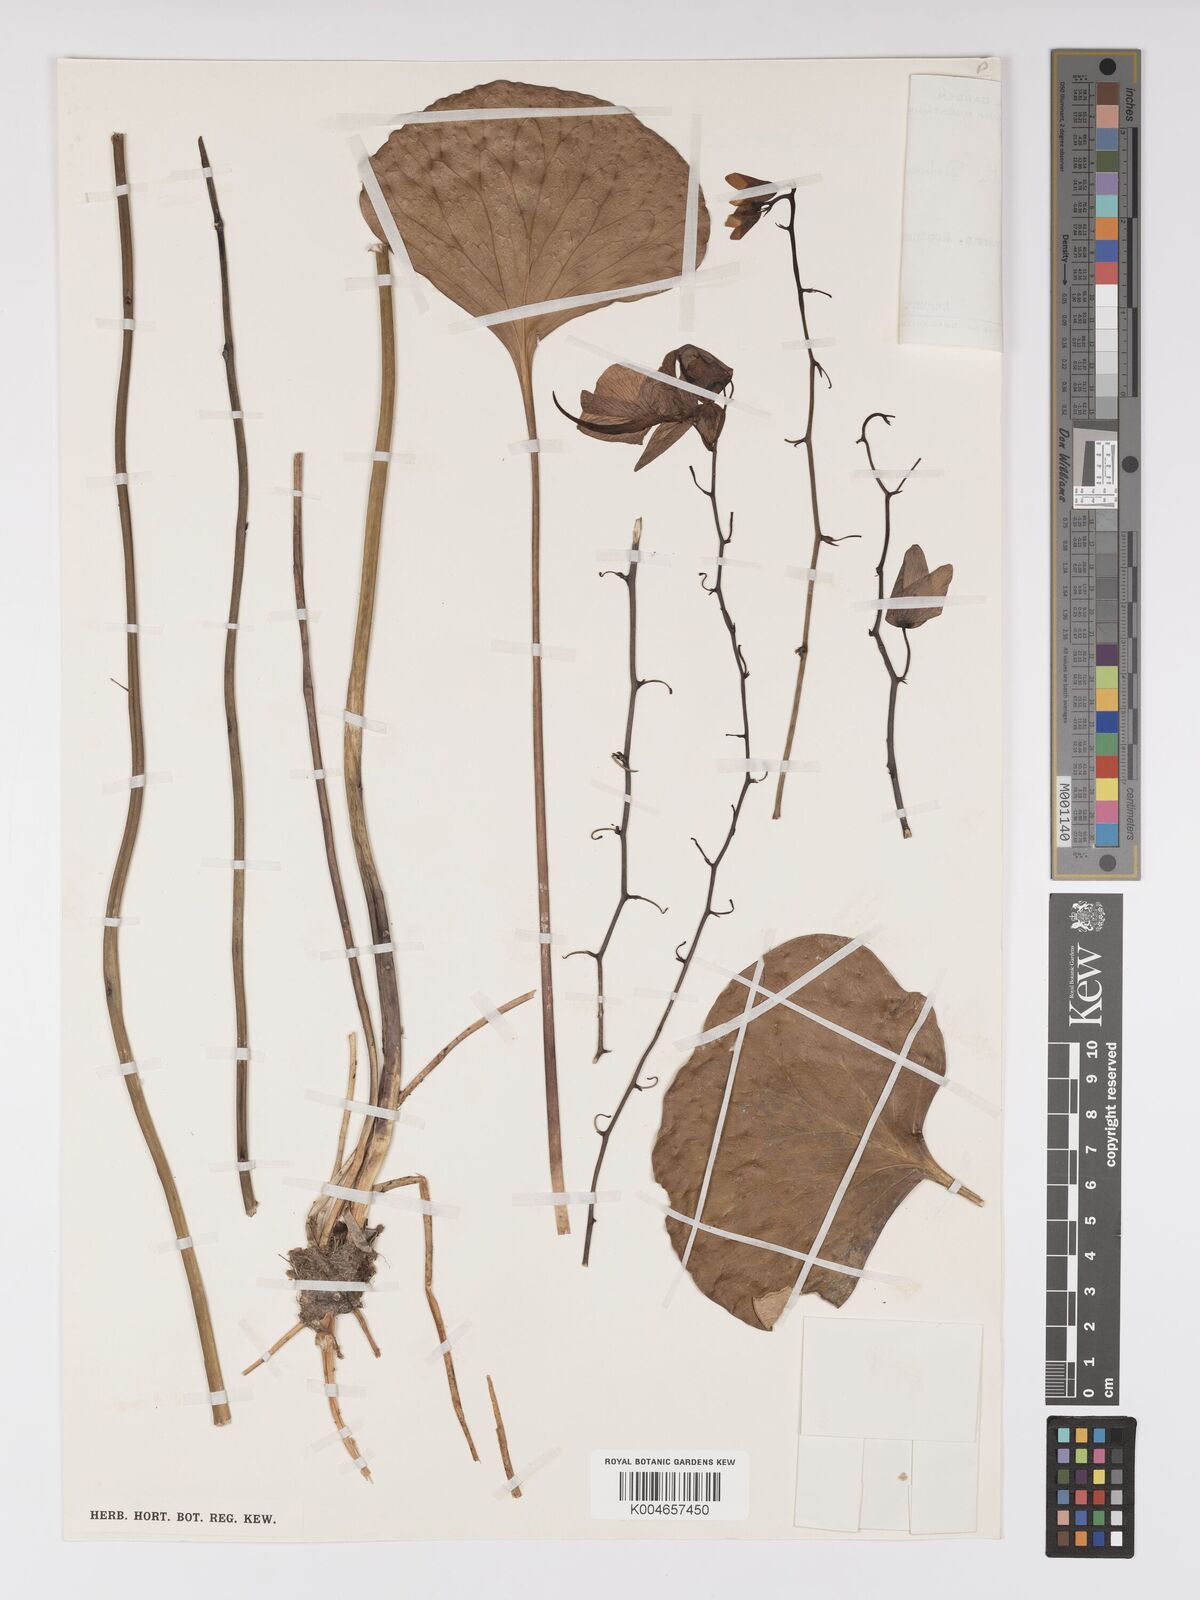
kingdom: Plantae
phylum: Tracheophyta
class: Magnoliopsida
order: Lamiales
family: Lentibulariaceae
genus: Utricularia
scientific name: Utricularia humboldtii
